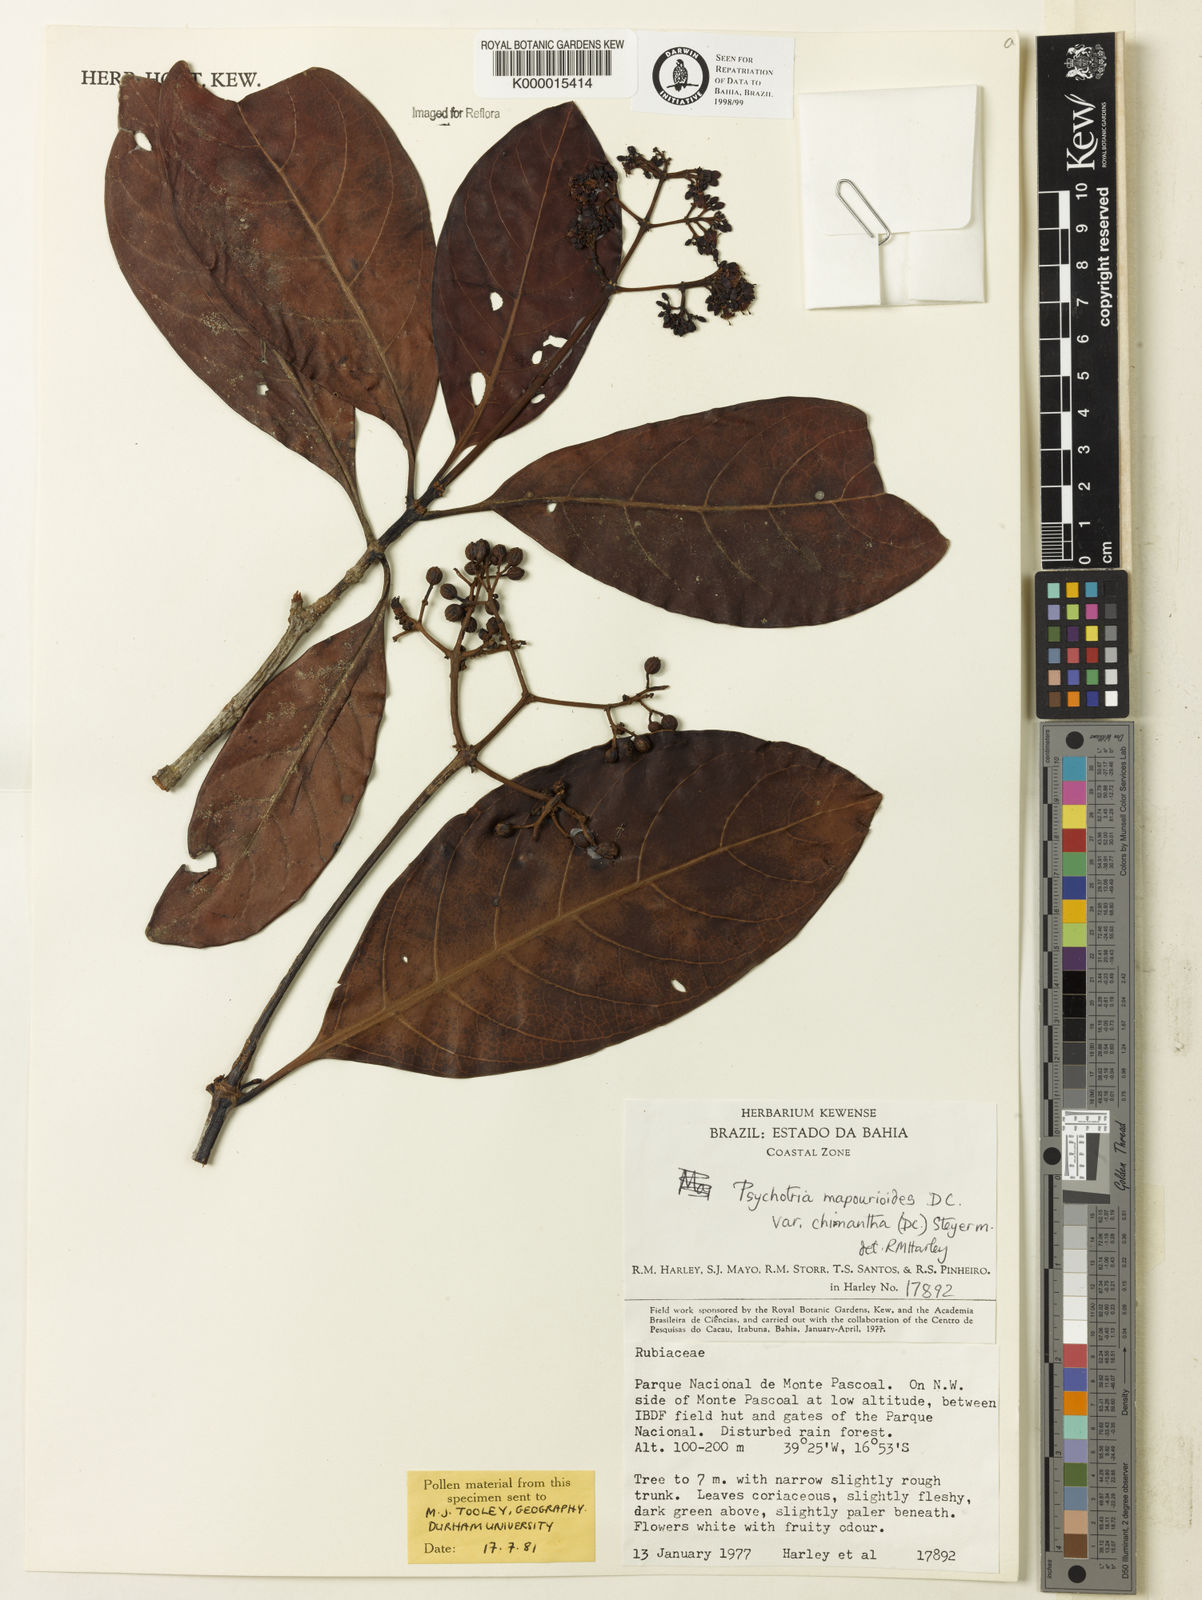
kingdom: Plantae
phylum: Tracheophyta
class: Magnoliopsida
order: Gentianales
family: Rubiaceae
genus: Psychotria
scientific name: Psychotria carthagenensis
